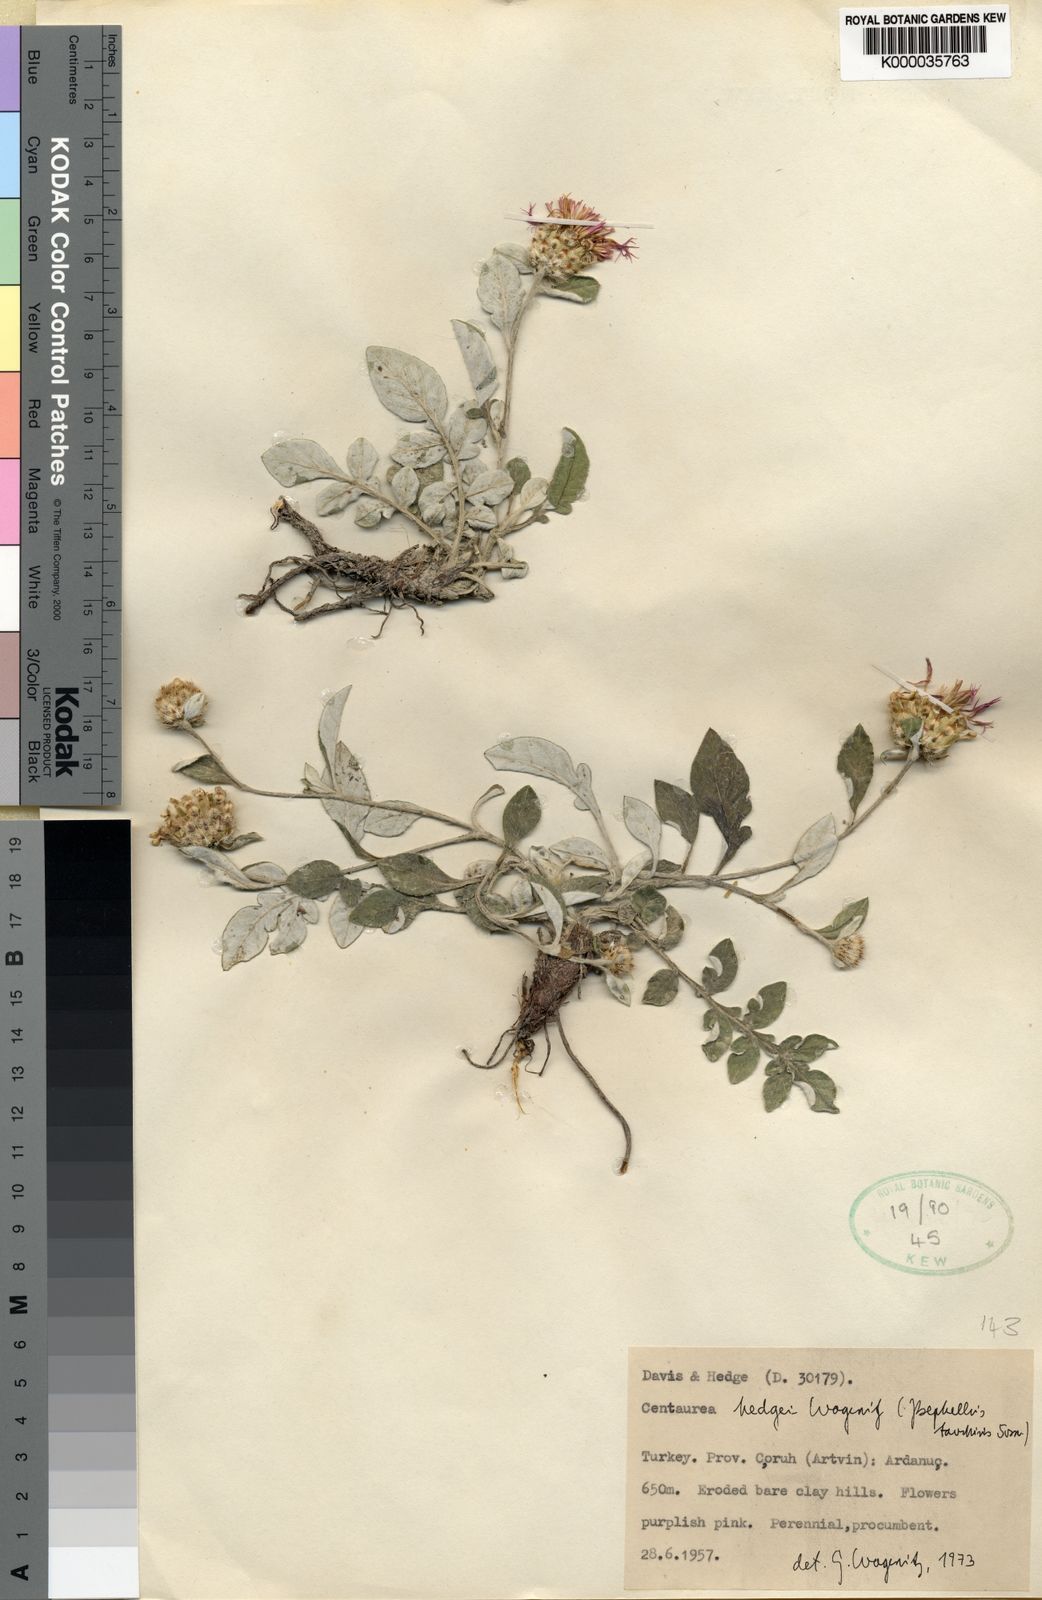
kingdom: Plantae
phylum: Tracheophyta
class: Magnoliopsida
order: Asterales
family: Asteraceae
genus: Psephellus
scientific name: Psephellus taochius
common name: Centaury
